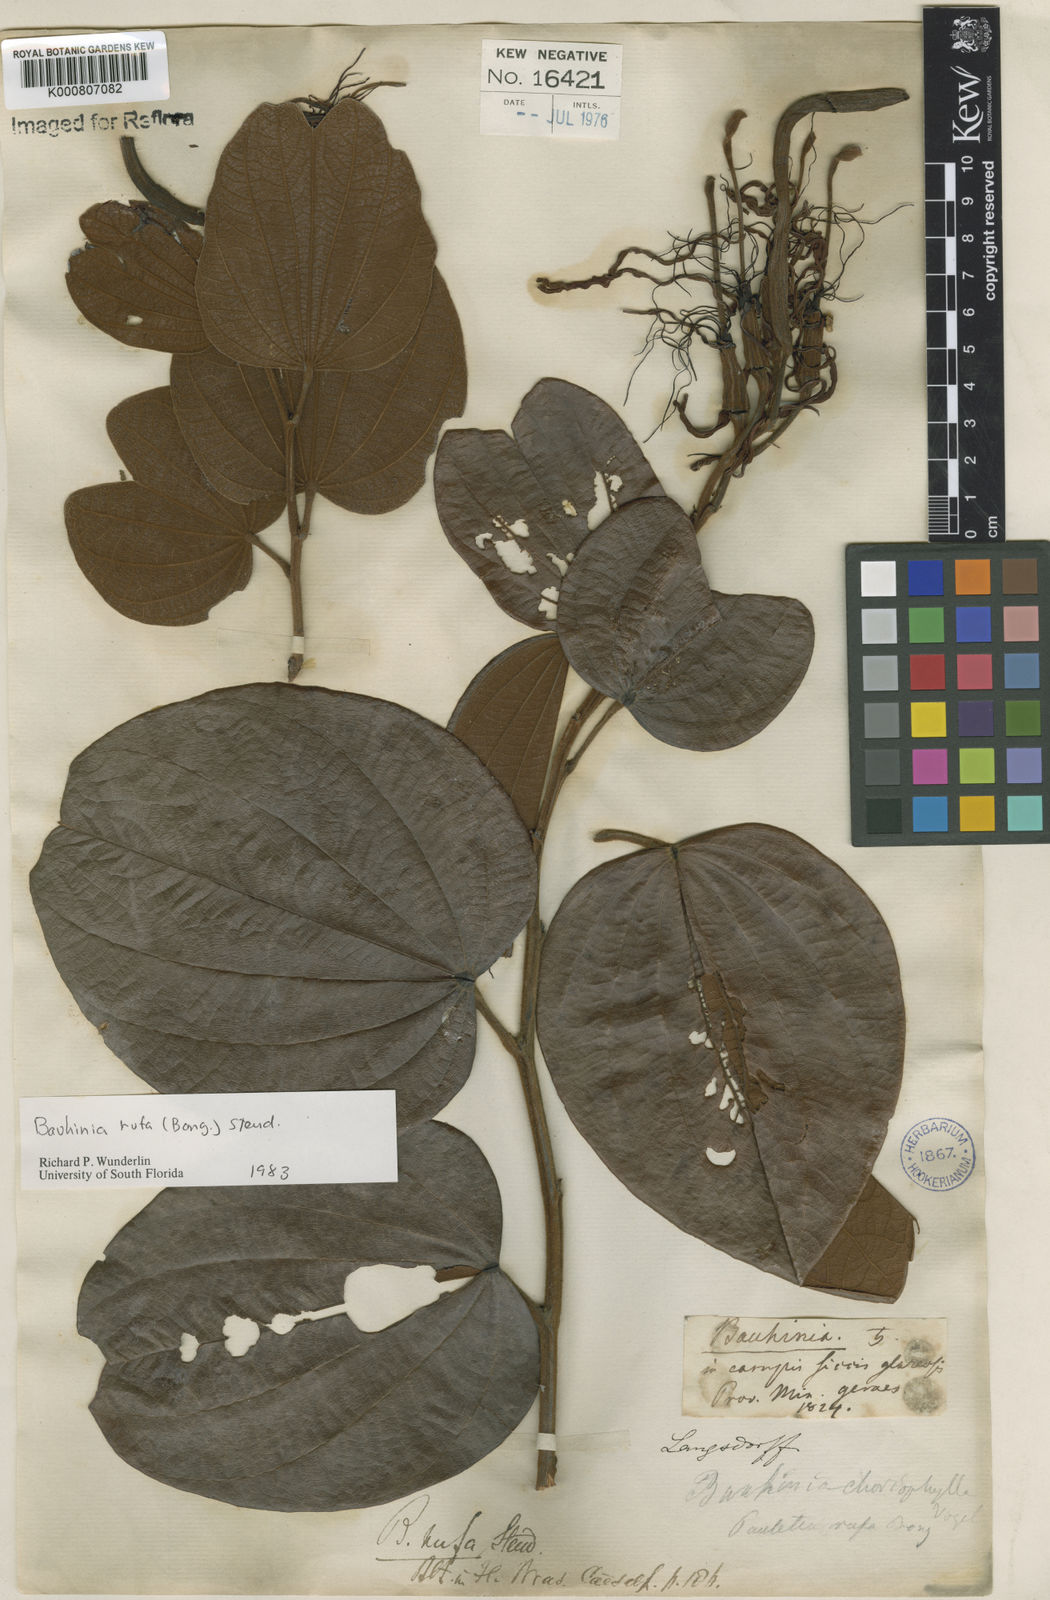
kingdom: Plantae
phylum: Tracheophyta
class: Magnoliopsida
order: Fabales
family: Fabaceae
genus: Bauhinia
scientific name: Bauhinia rufa
